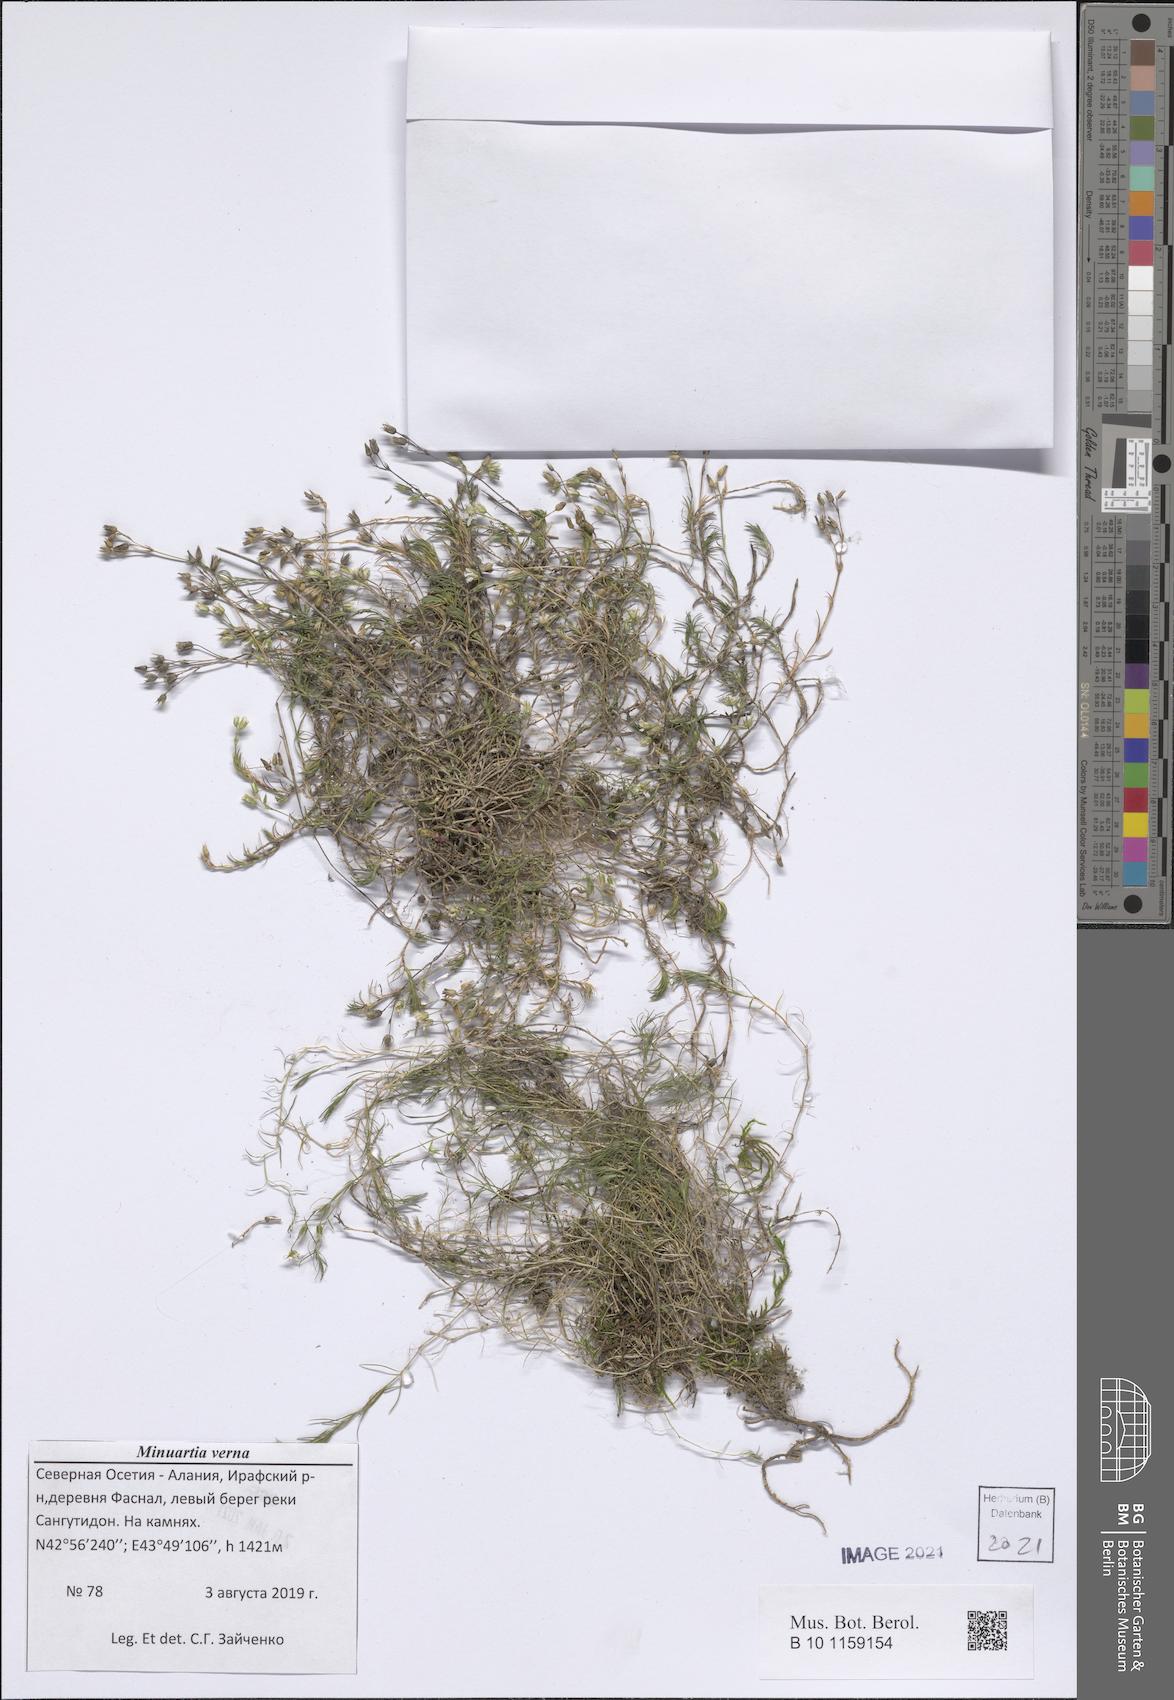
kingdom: Plantae
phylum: Tracheophyta
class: Magnoliopsida
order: Caryophyllales
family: Caryophyllaceae
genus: Sabulina
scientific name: Sabulina verna
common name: Spring sandwort
